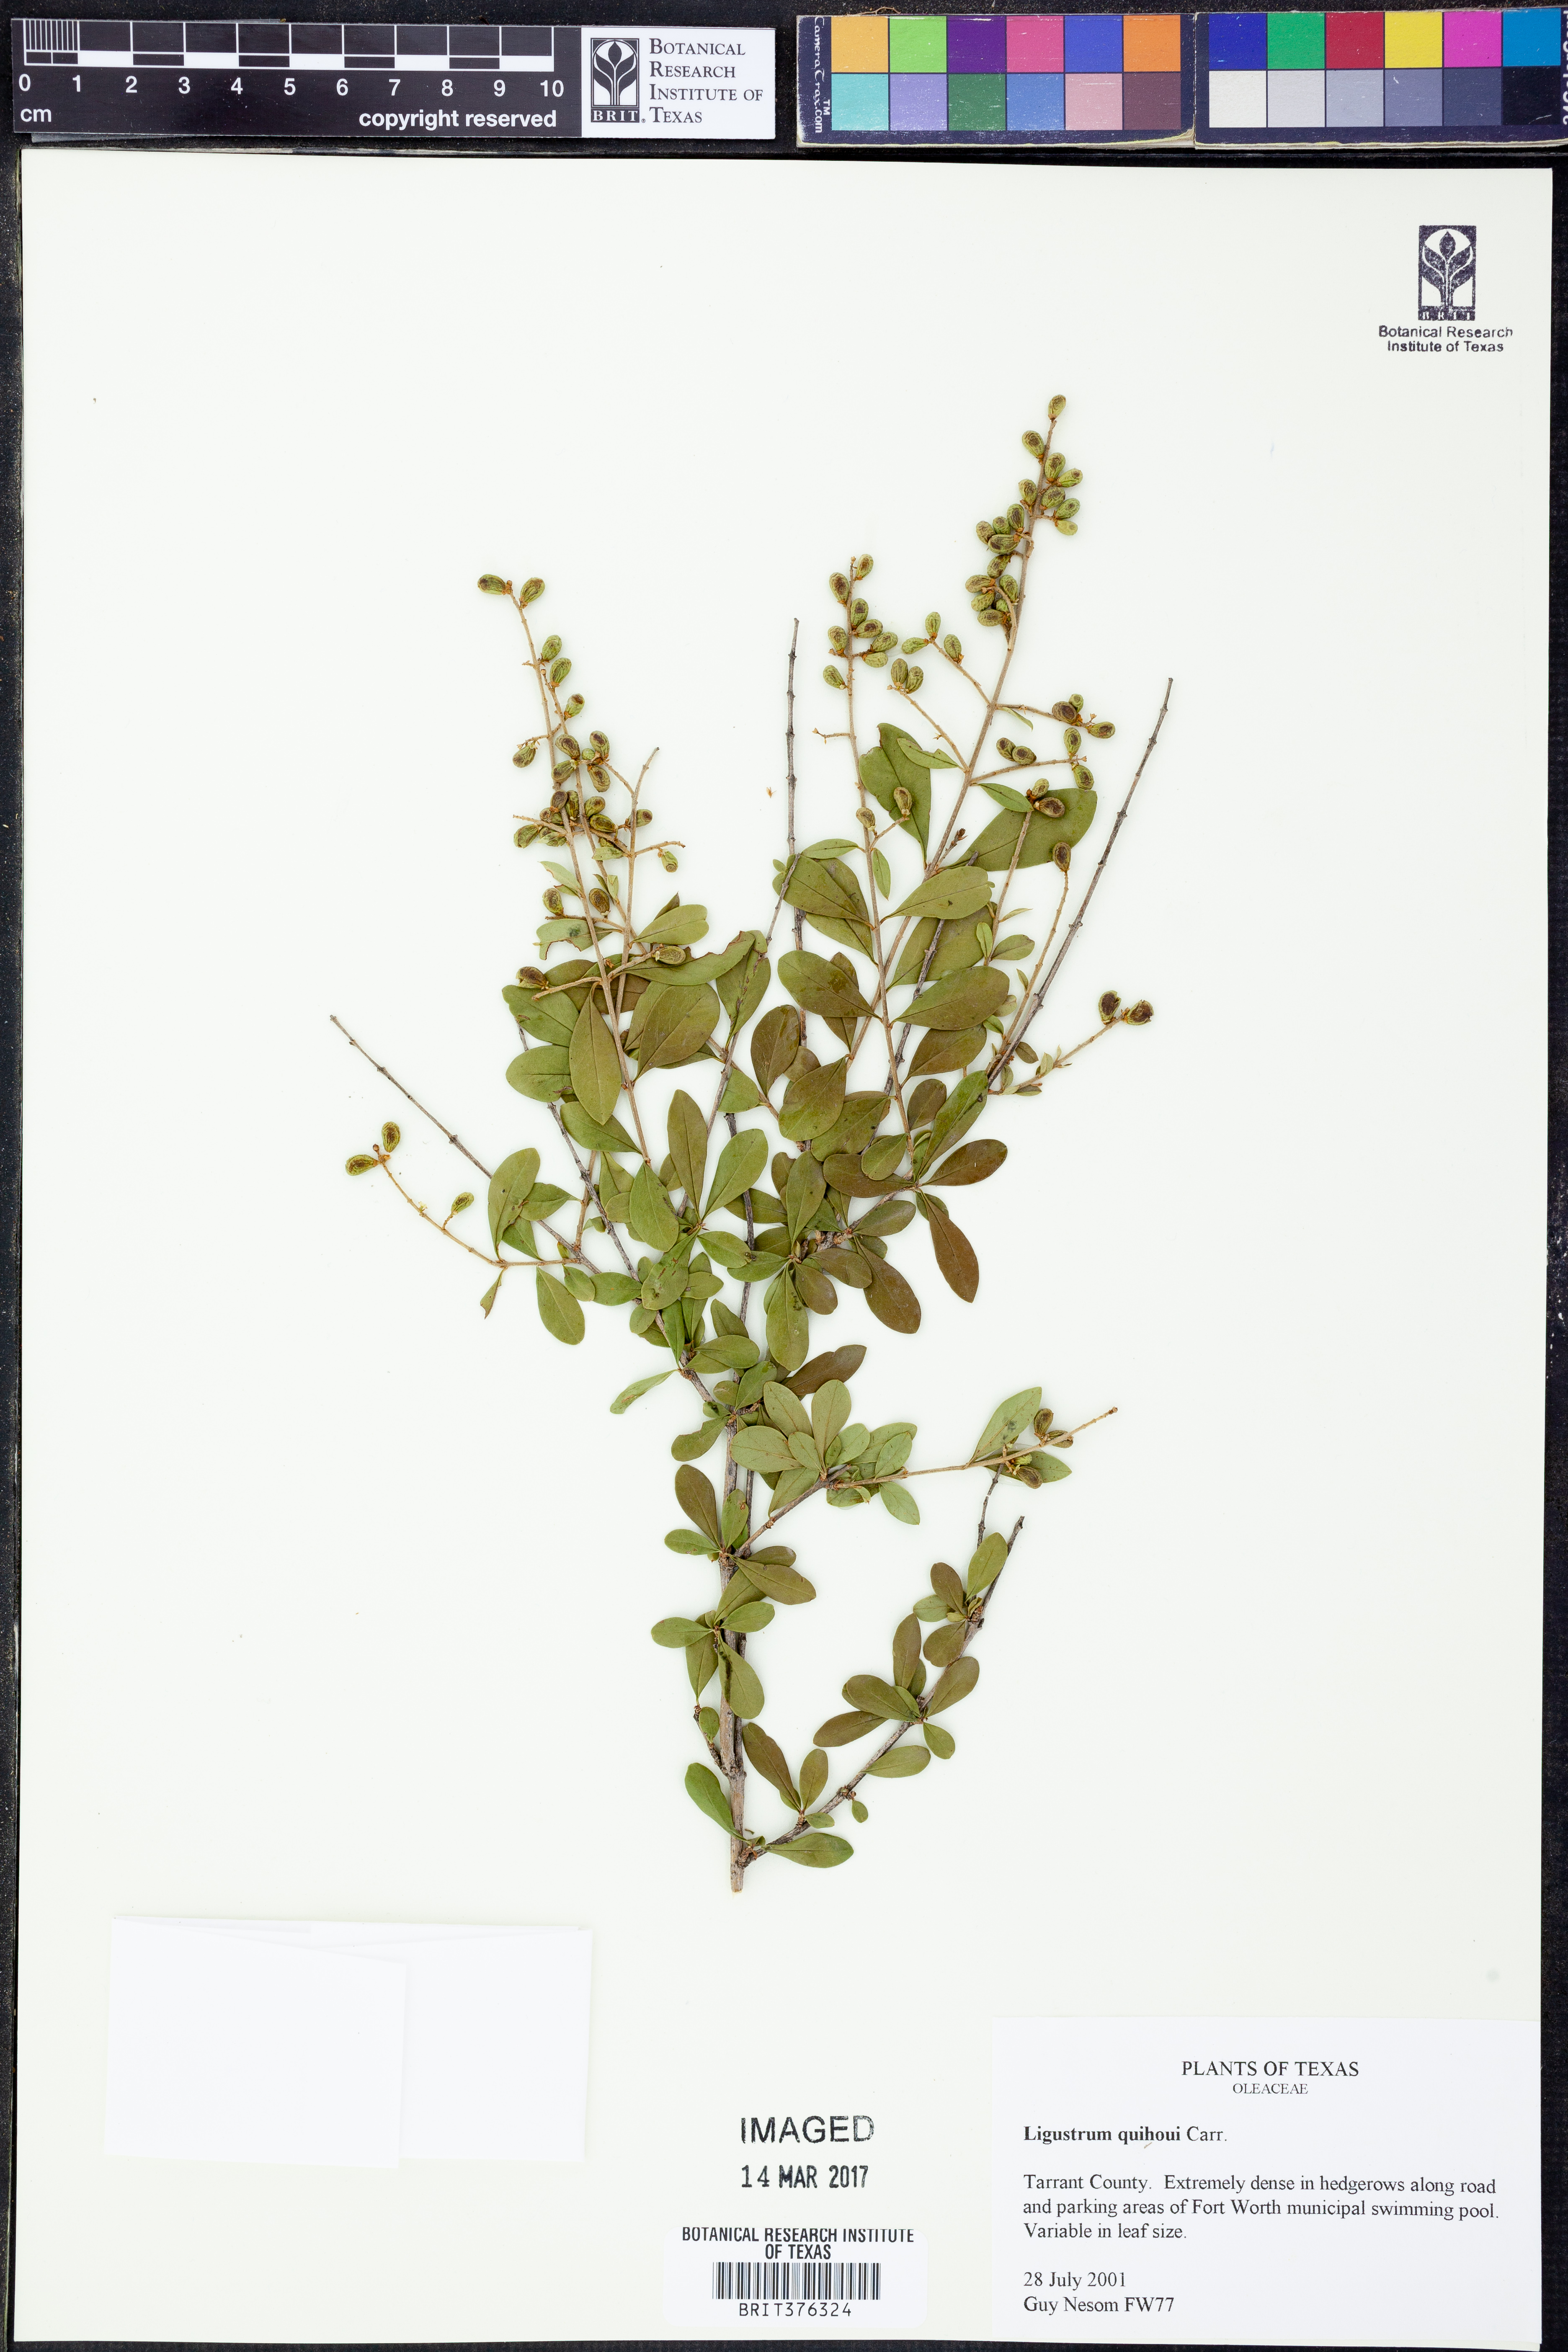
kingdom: Plantae
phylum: Tracheophyta
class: Magnoliopsida
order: Lamiales
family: Oleaceae
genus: Ligustrum
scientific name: Ligustrum quihoui
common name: Waxyleaf privet
